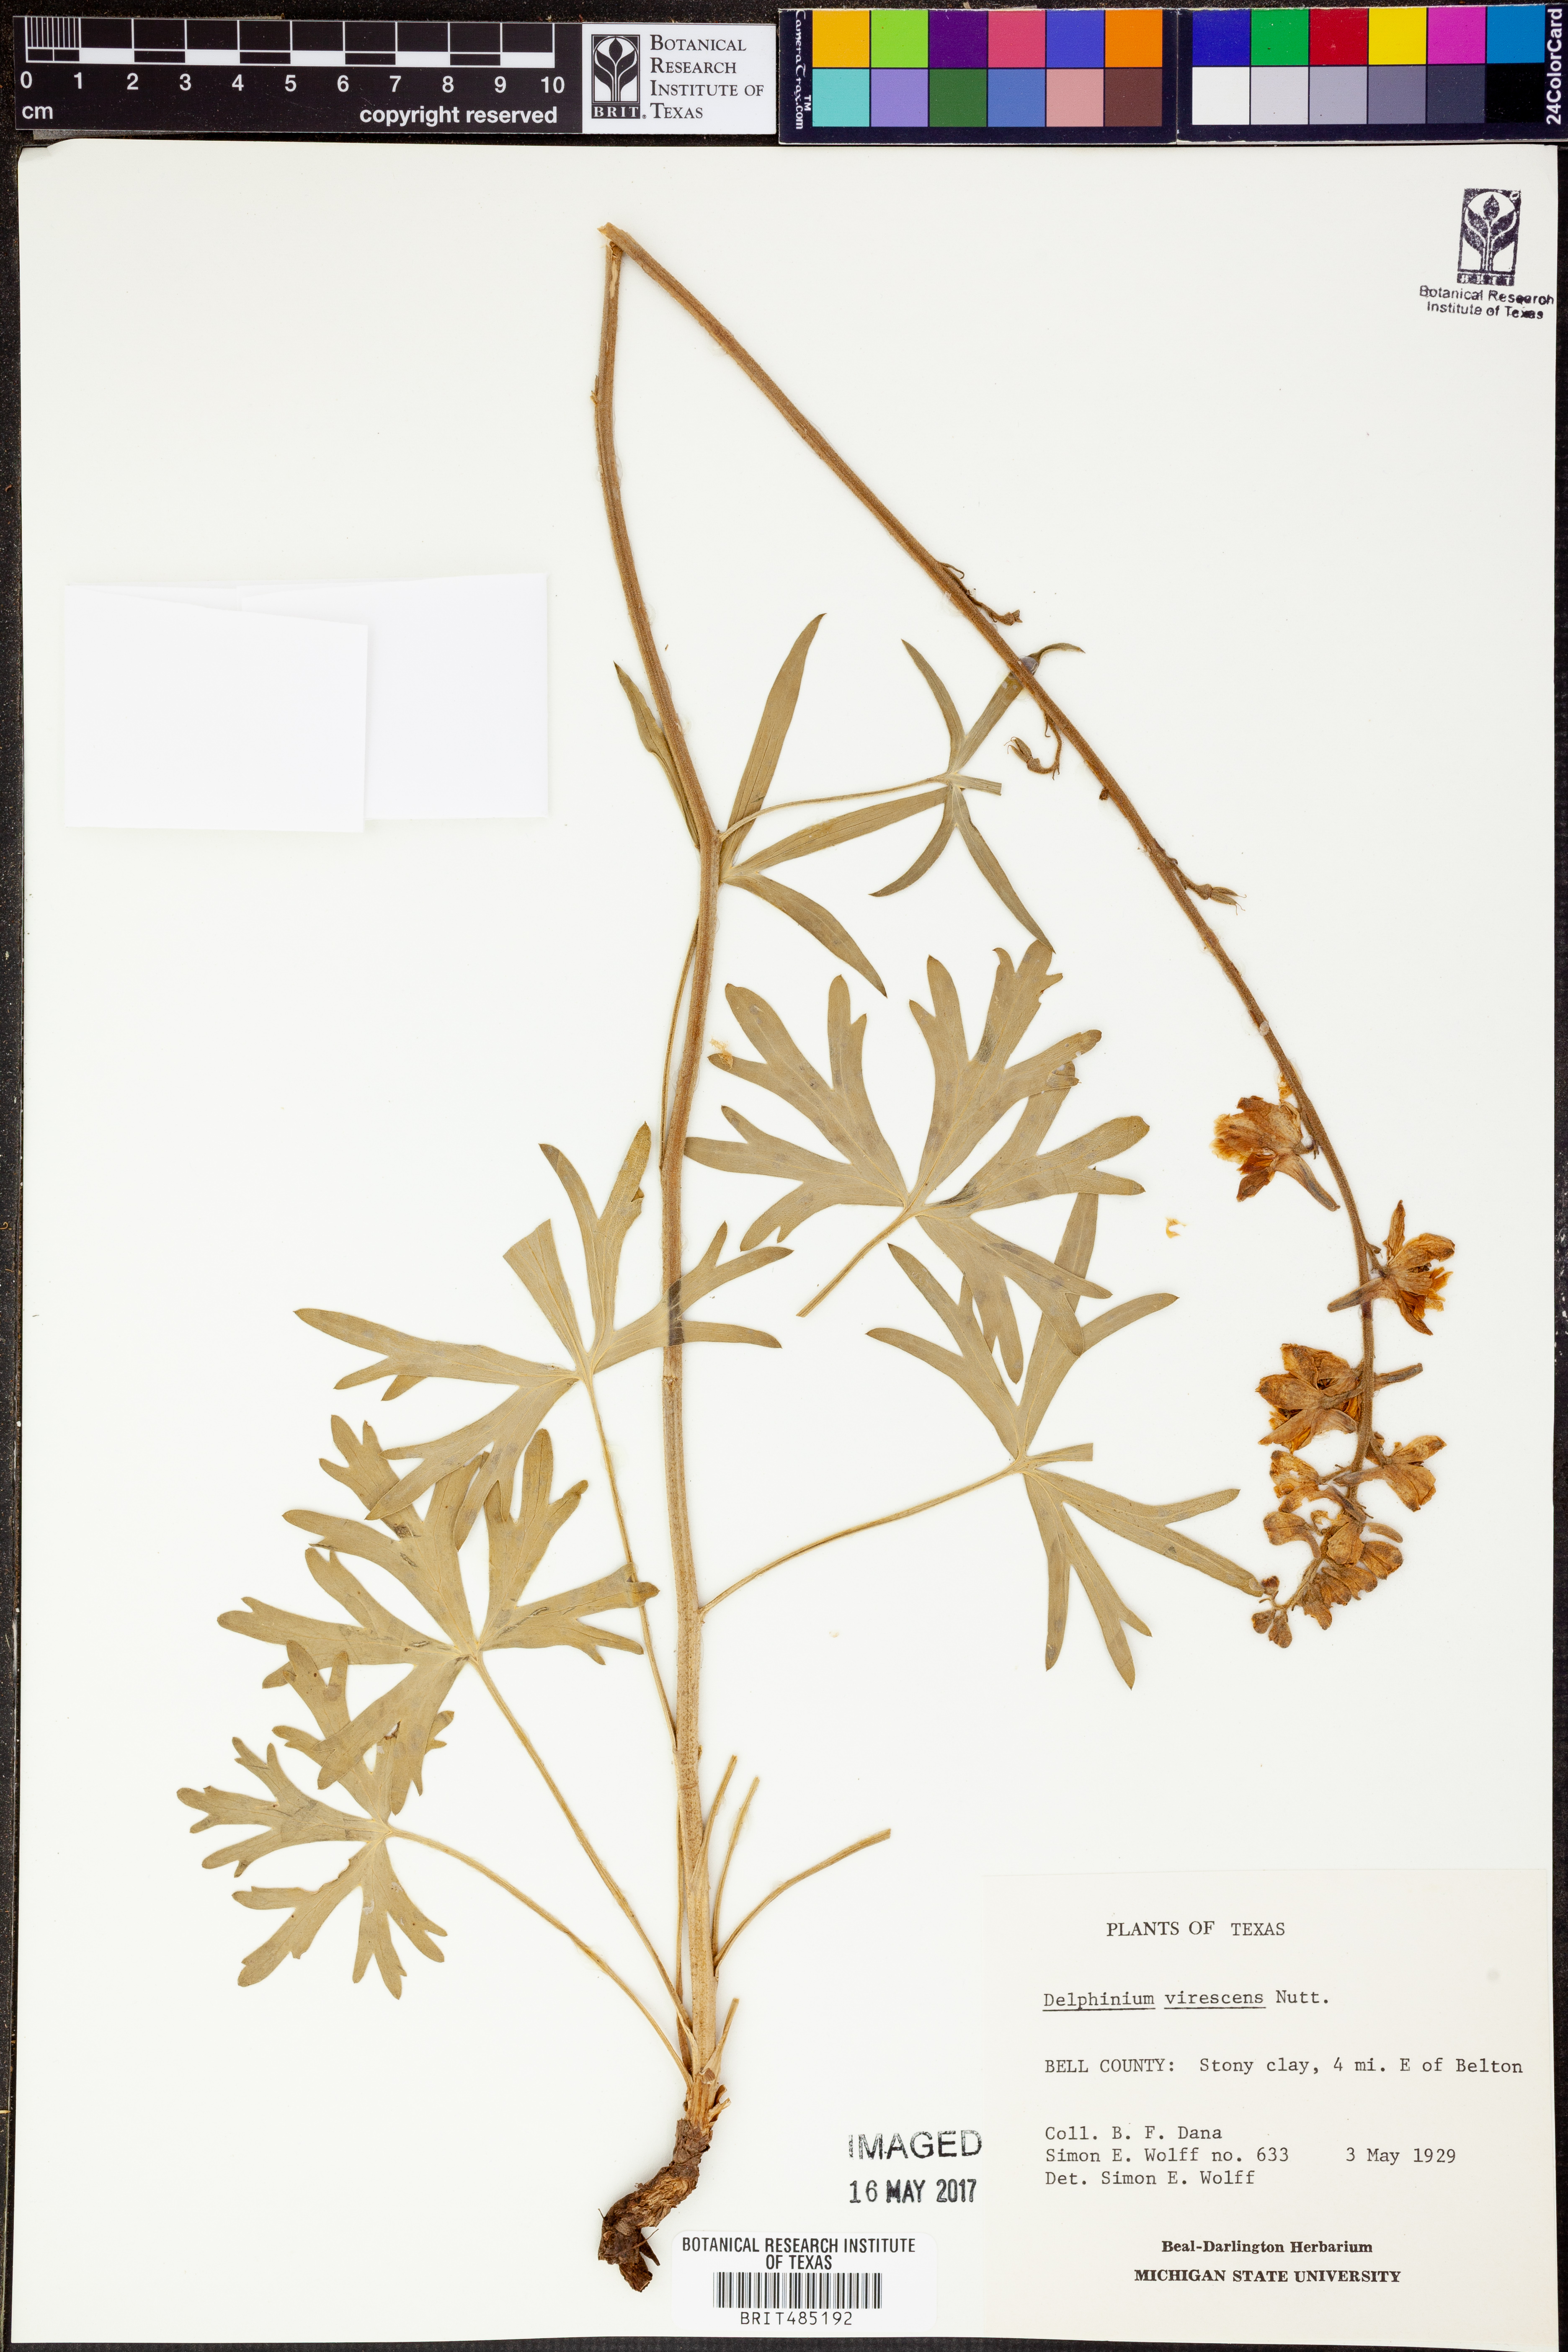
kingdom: Plantae
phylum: Tracheophyta
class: Magnoliopsida
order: Ranunculales
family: Ranunculaceae
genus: Delphinium
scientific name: Delphinium carolinianum
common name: Carolina larkspur
